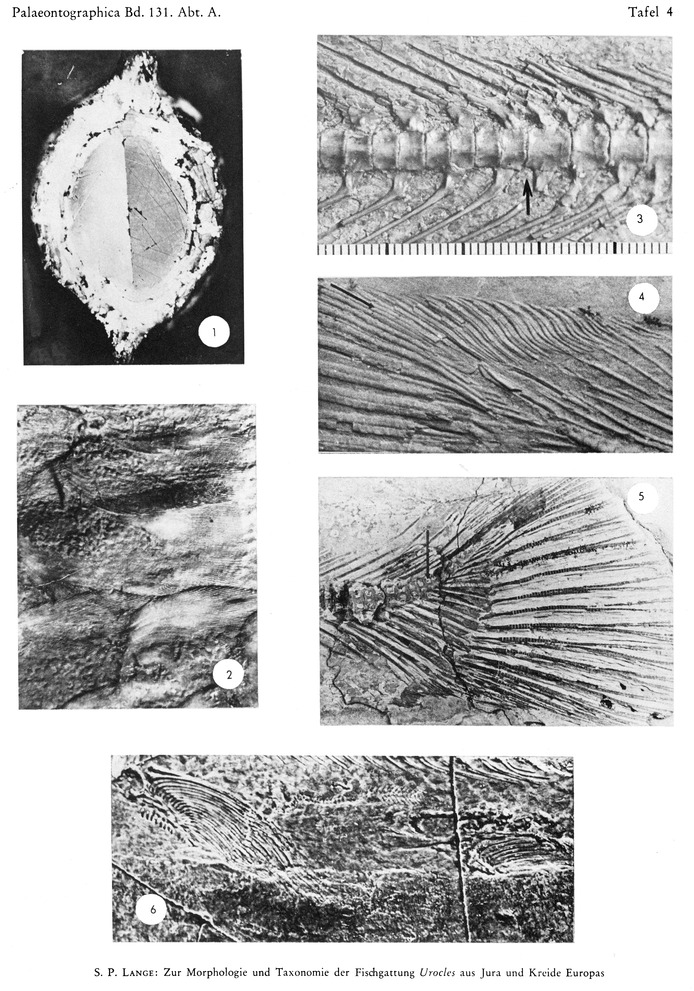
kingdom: Animalia
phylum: Chordata
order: Amiiformes
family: Amiidae
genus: Solnhofenamia
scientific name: Solnhofenamia elongata
